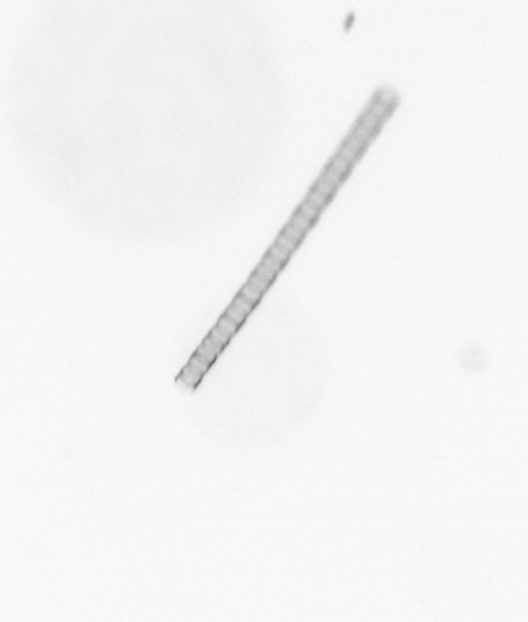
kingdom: Chromista
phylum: Ochrophyta
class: Bacillariophyceae
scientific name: Bacillariophyceae
